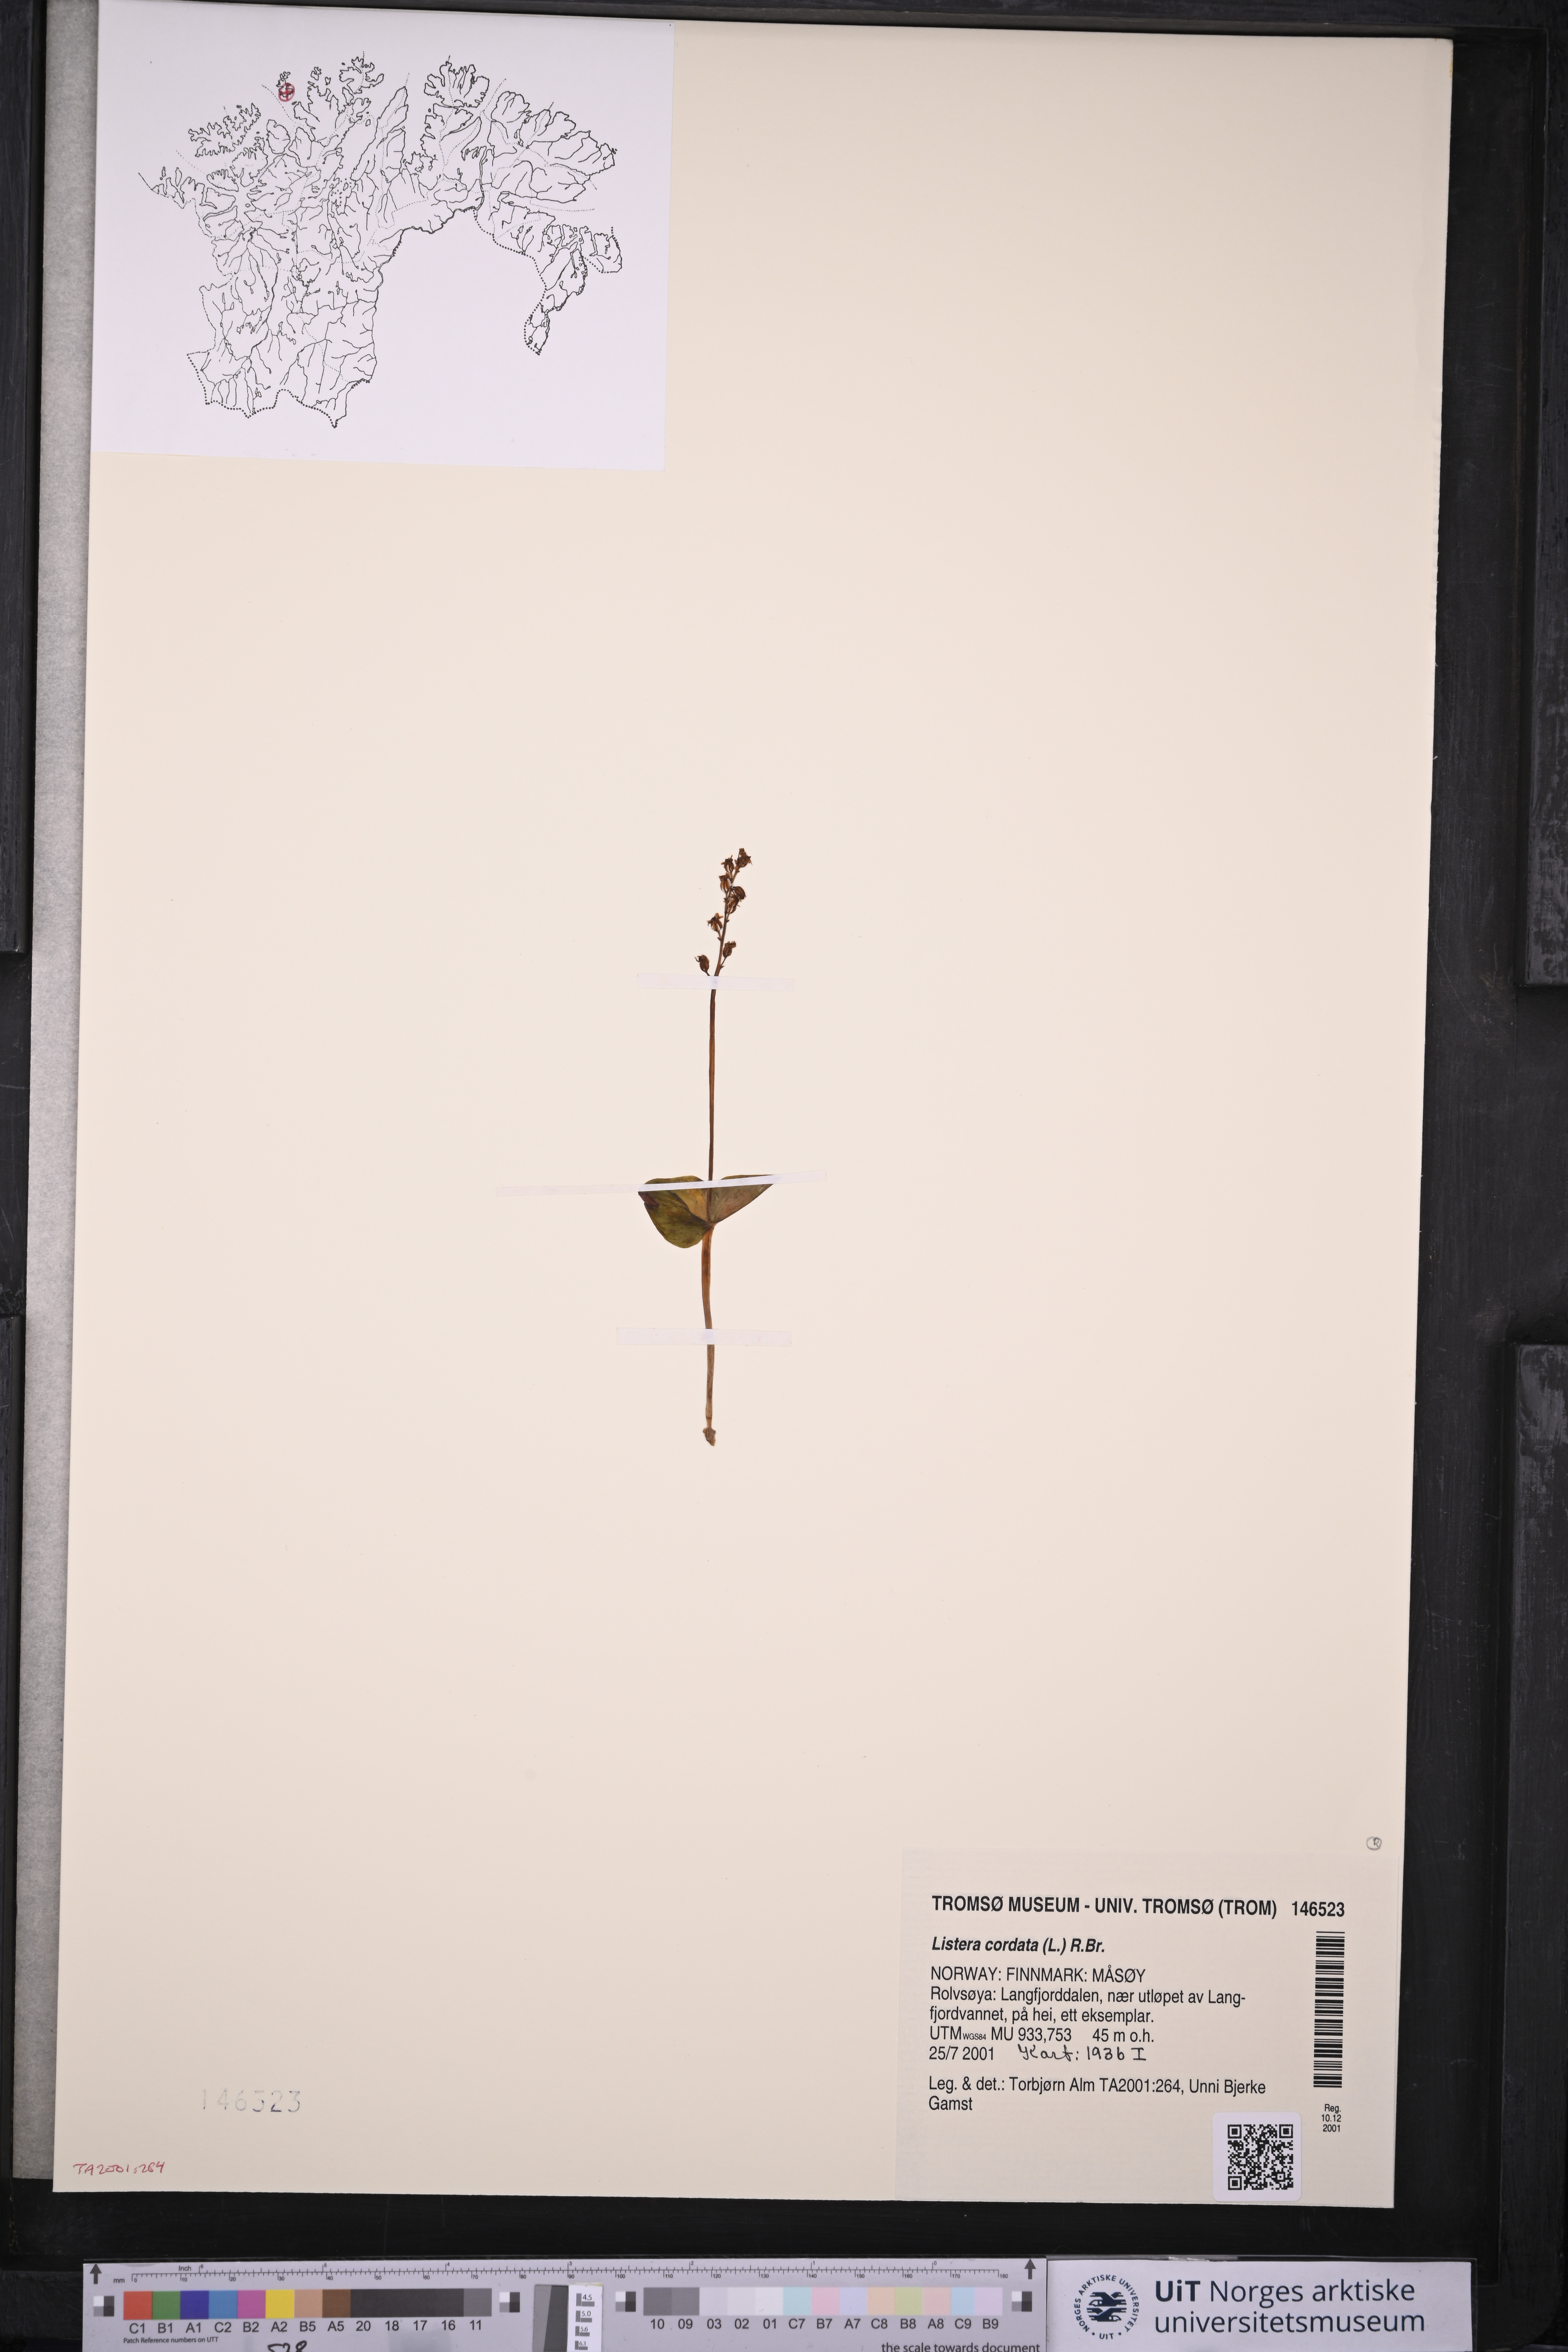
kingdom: Plantae
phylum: Tracheophyta
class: Liliopsida
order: Asparagales
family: Orchidaceae
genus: Neottia
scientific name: Neottia cordata
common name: Lesser twayblade
